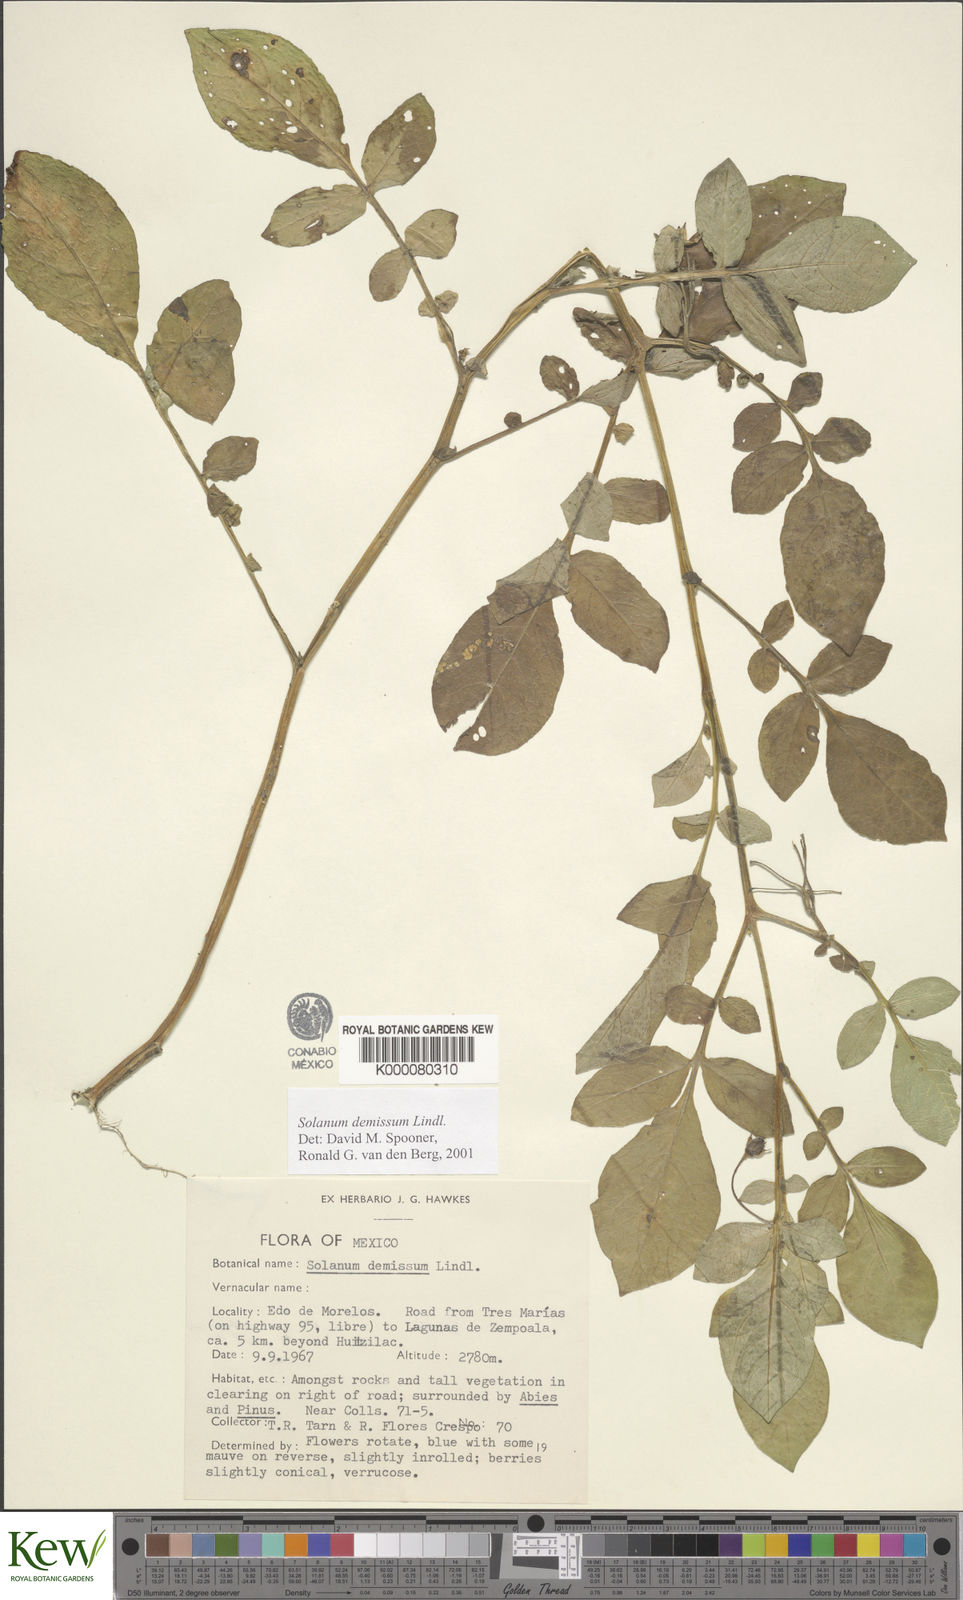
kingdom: Plantae
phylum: Tracheophyta
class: Magnoliopsida
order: Solanales
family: Solanaceae
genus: Solanum
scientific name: Solanum demissum
